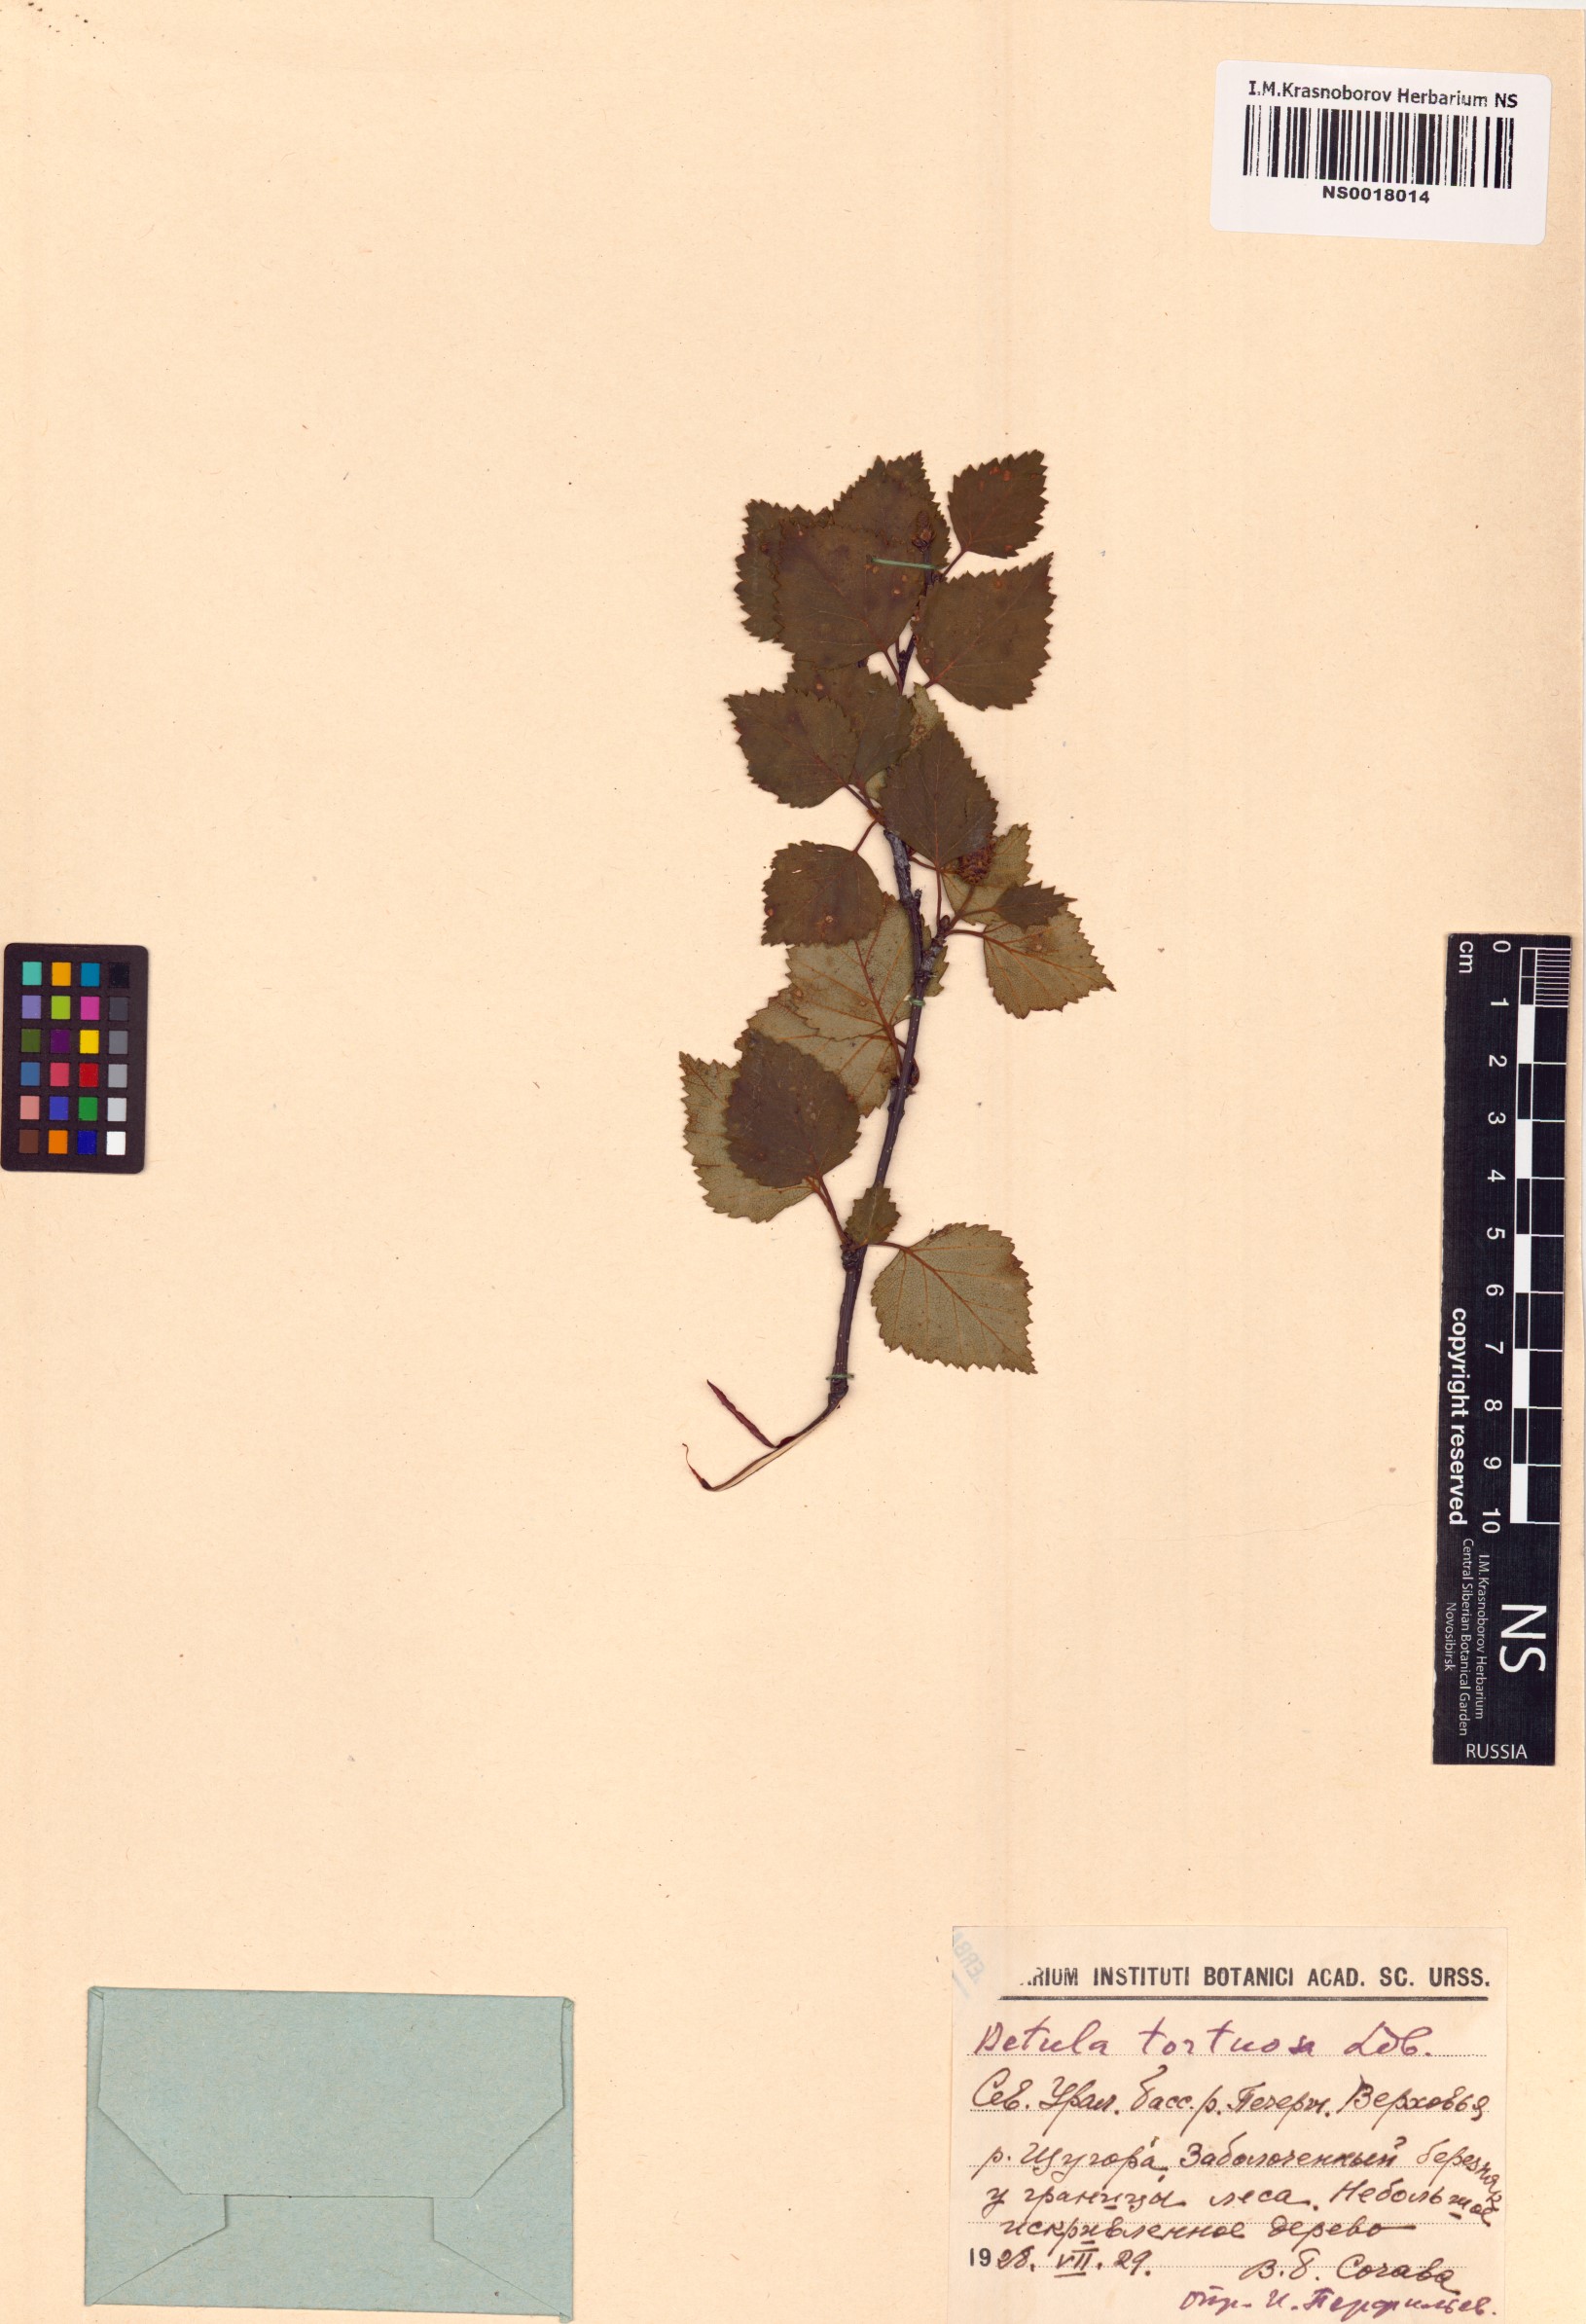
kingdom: Plantae
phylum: Tracheophyta
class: Magnoliopsida
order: Fagales
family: Betulaceae
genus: Betula
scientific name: Betula pubescens
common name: Downy birch
